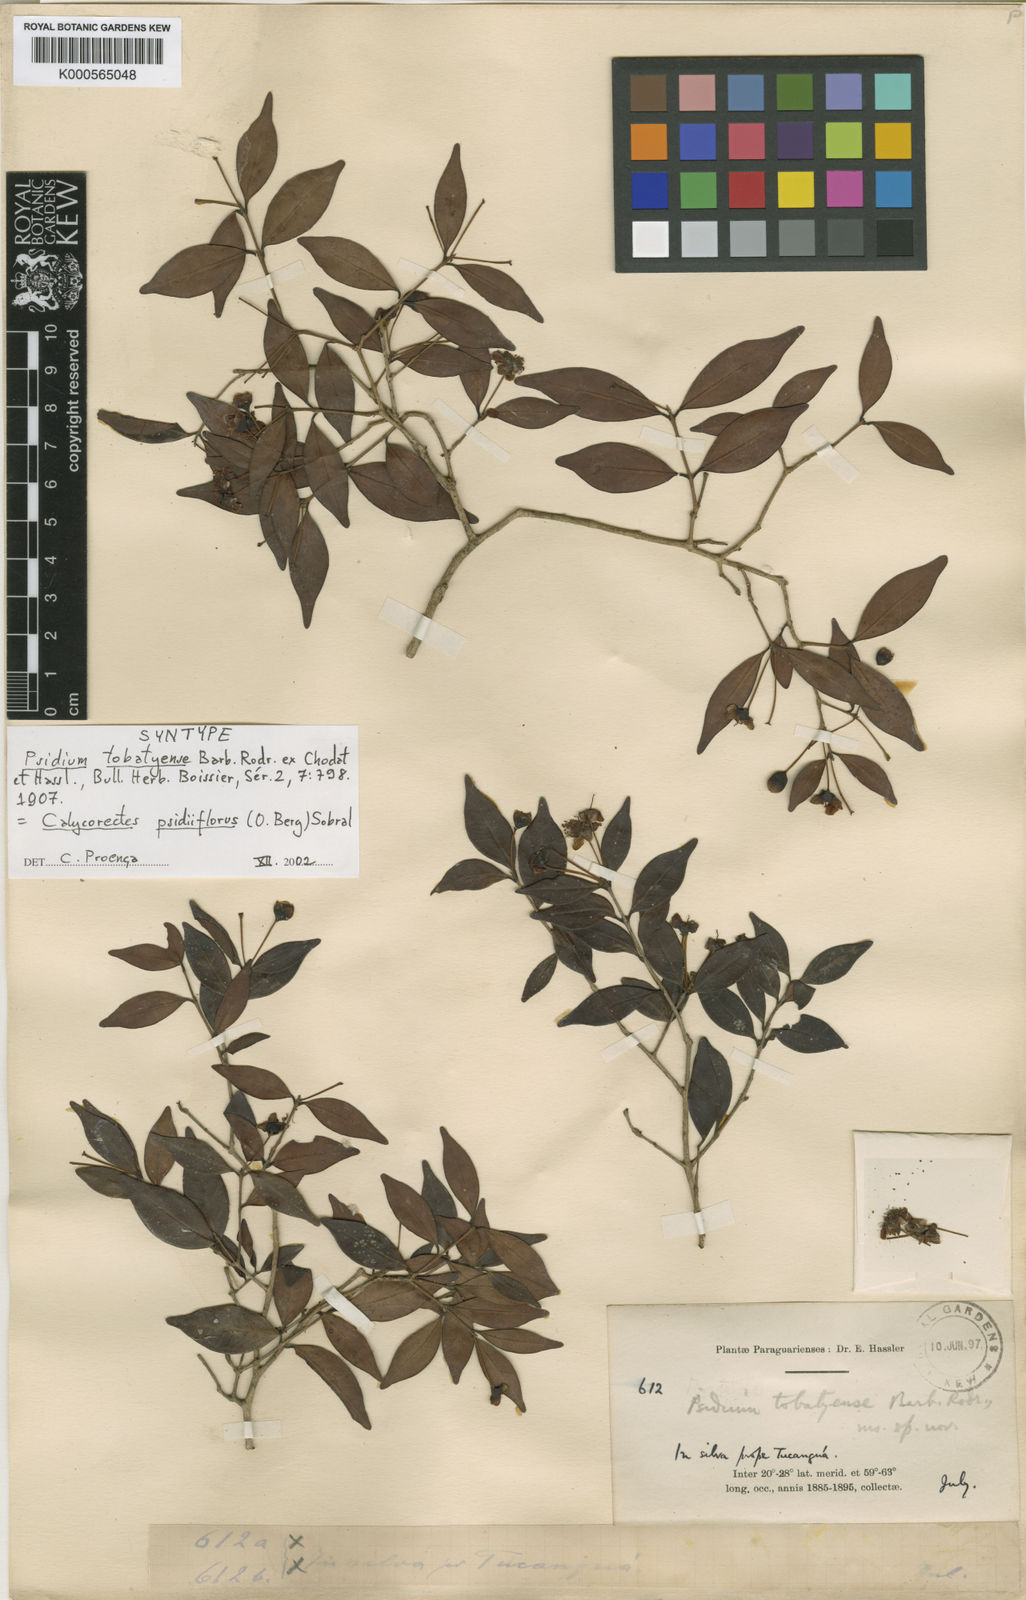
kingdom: Plantae
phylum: Tracheophyta
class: Magnoliopsida
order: Myrtales
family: Myrtaceae
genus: Eugenia
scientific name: Eugenia subterminalis
